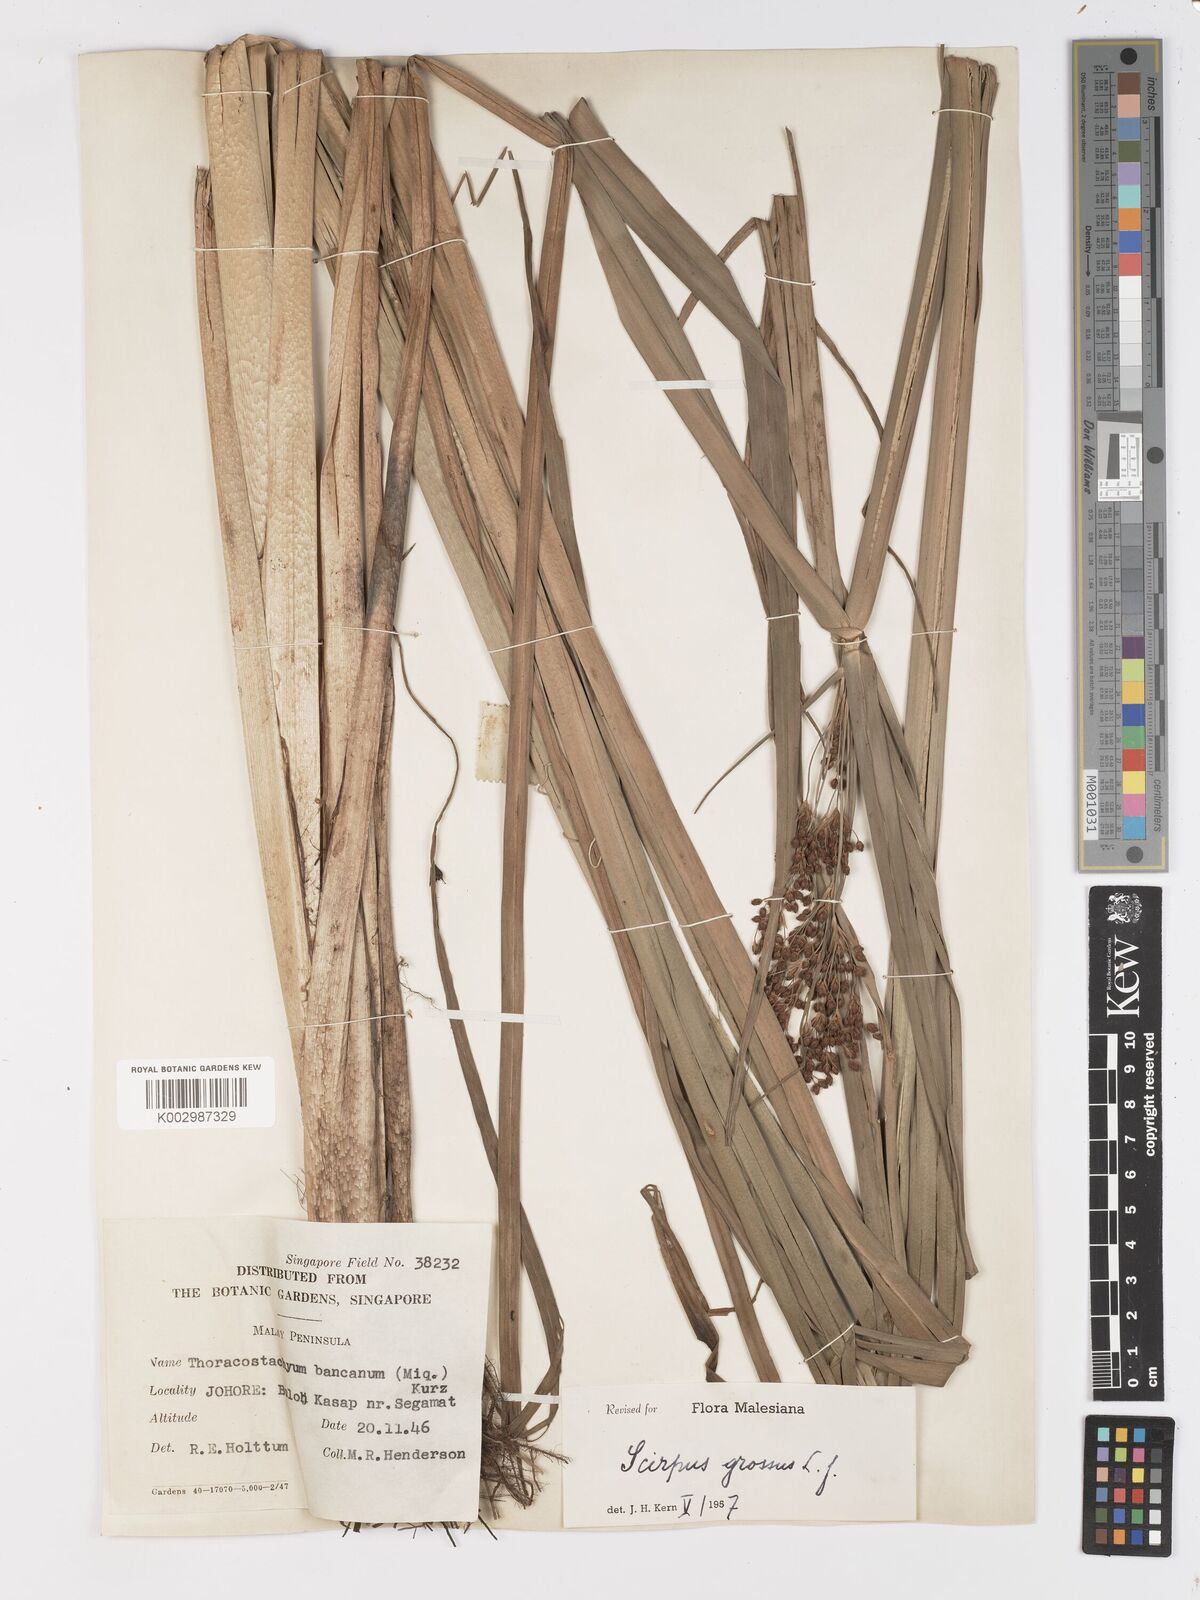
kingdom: Plantae
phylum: Tracheophyta
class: Liliopsida
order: Poales
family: Cyperaceae
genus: Actinoscirpus
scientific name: Actinoscirpus grossus
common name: Giant bur rush
